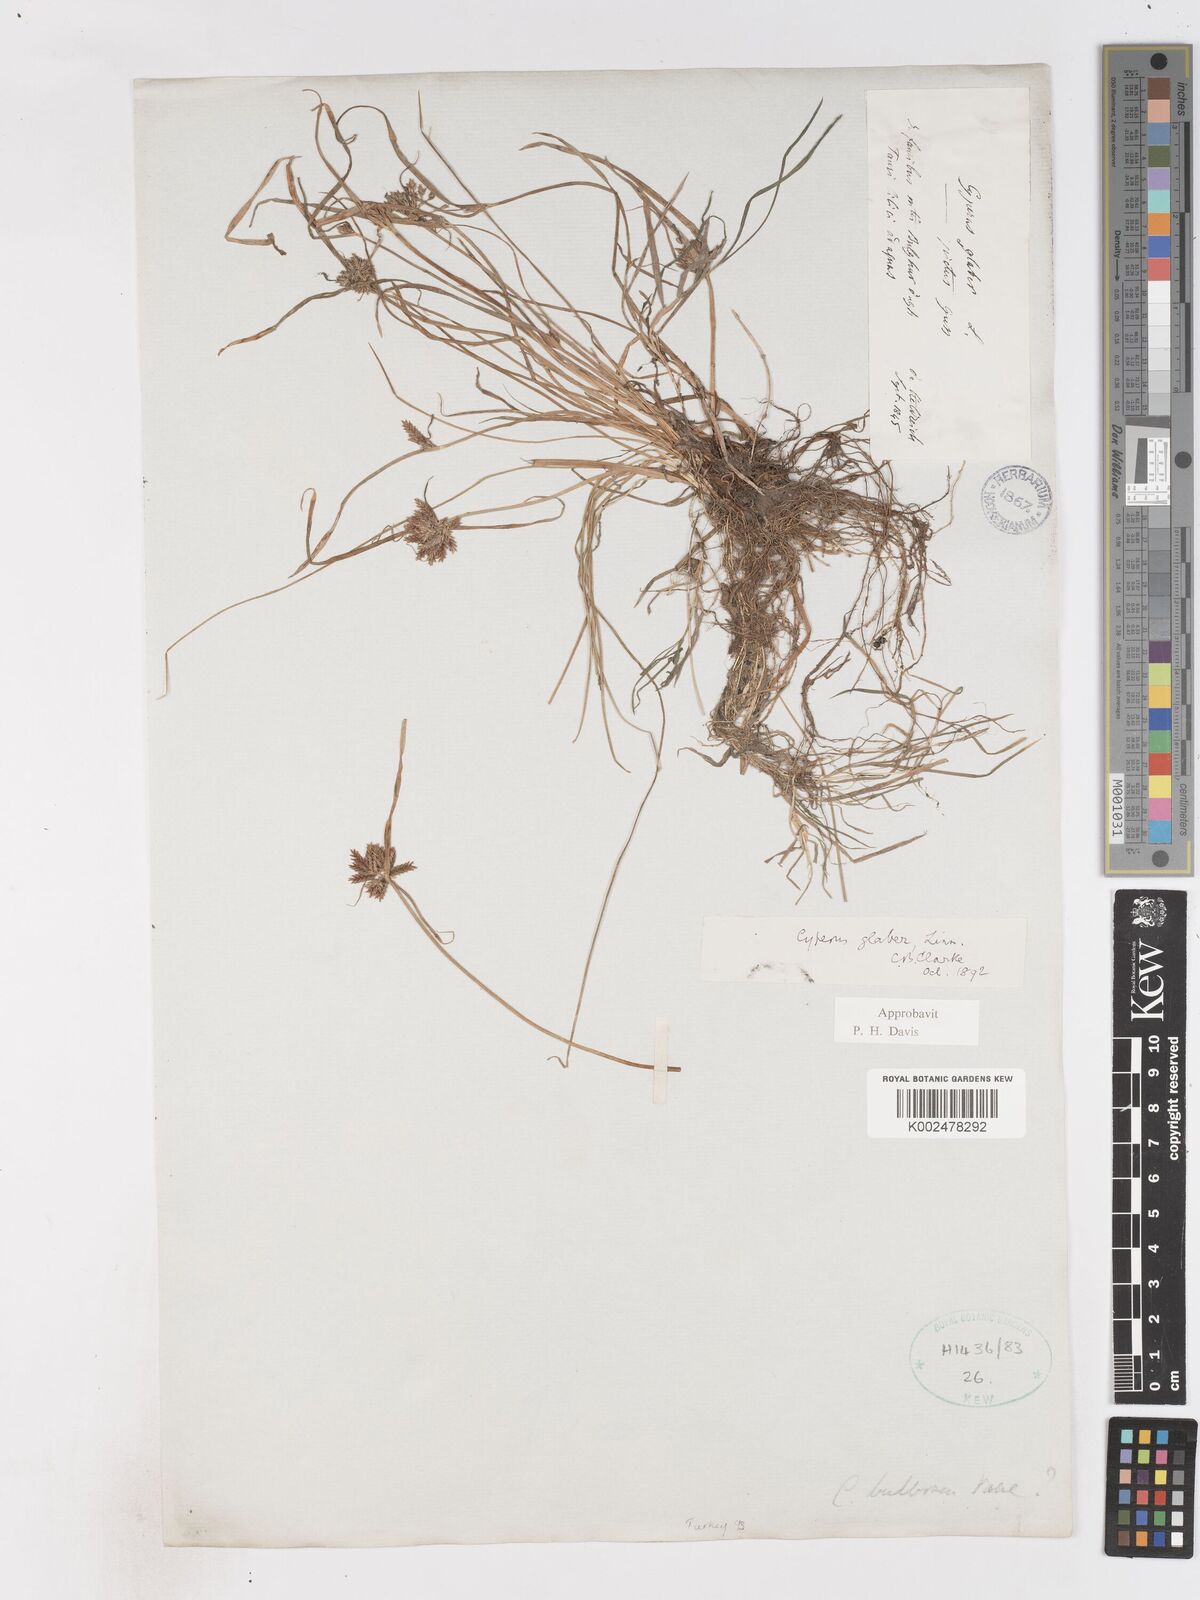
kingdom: Plantae
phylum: Tracheophyta
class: Liliopsida
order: Poales
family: Cyperaceae
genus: Cyperus
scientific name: Cyperus glaber
